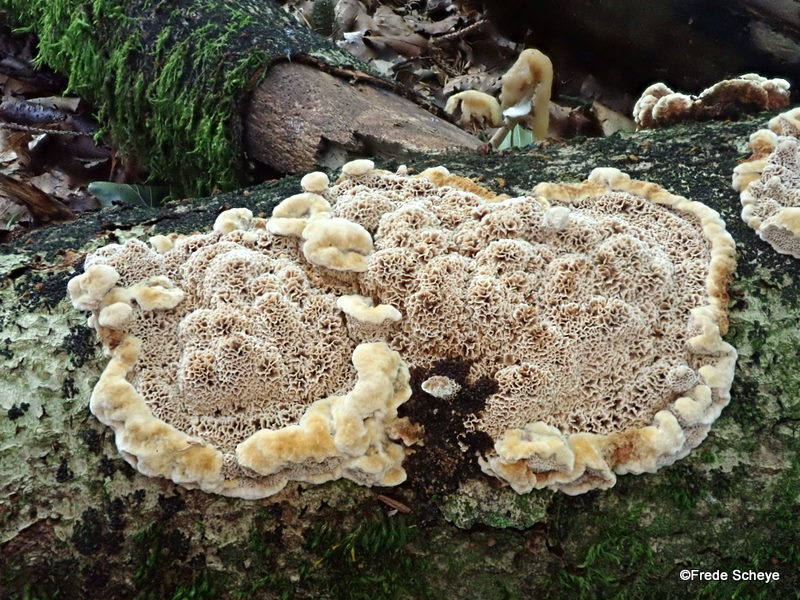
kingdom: Fungi
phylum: Basidiomycota
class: Agaricomycetes
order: Hymenochaetales
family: Hymenochaetaceae
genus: Mensularia
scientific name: Mensularia nodulosa
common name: bøge-spejlporesvamp
